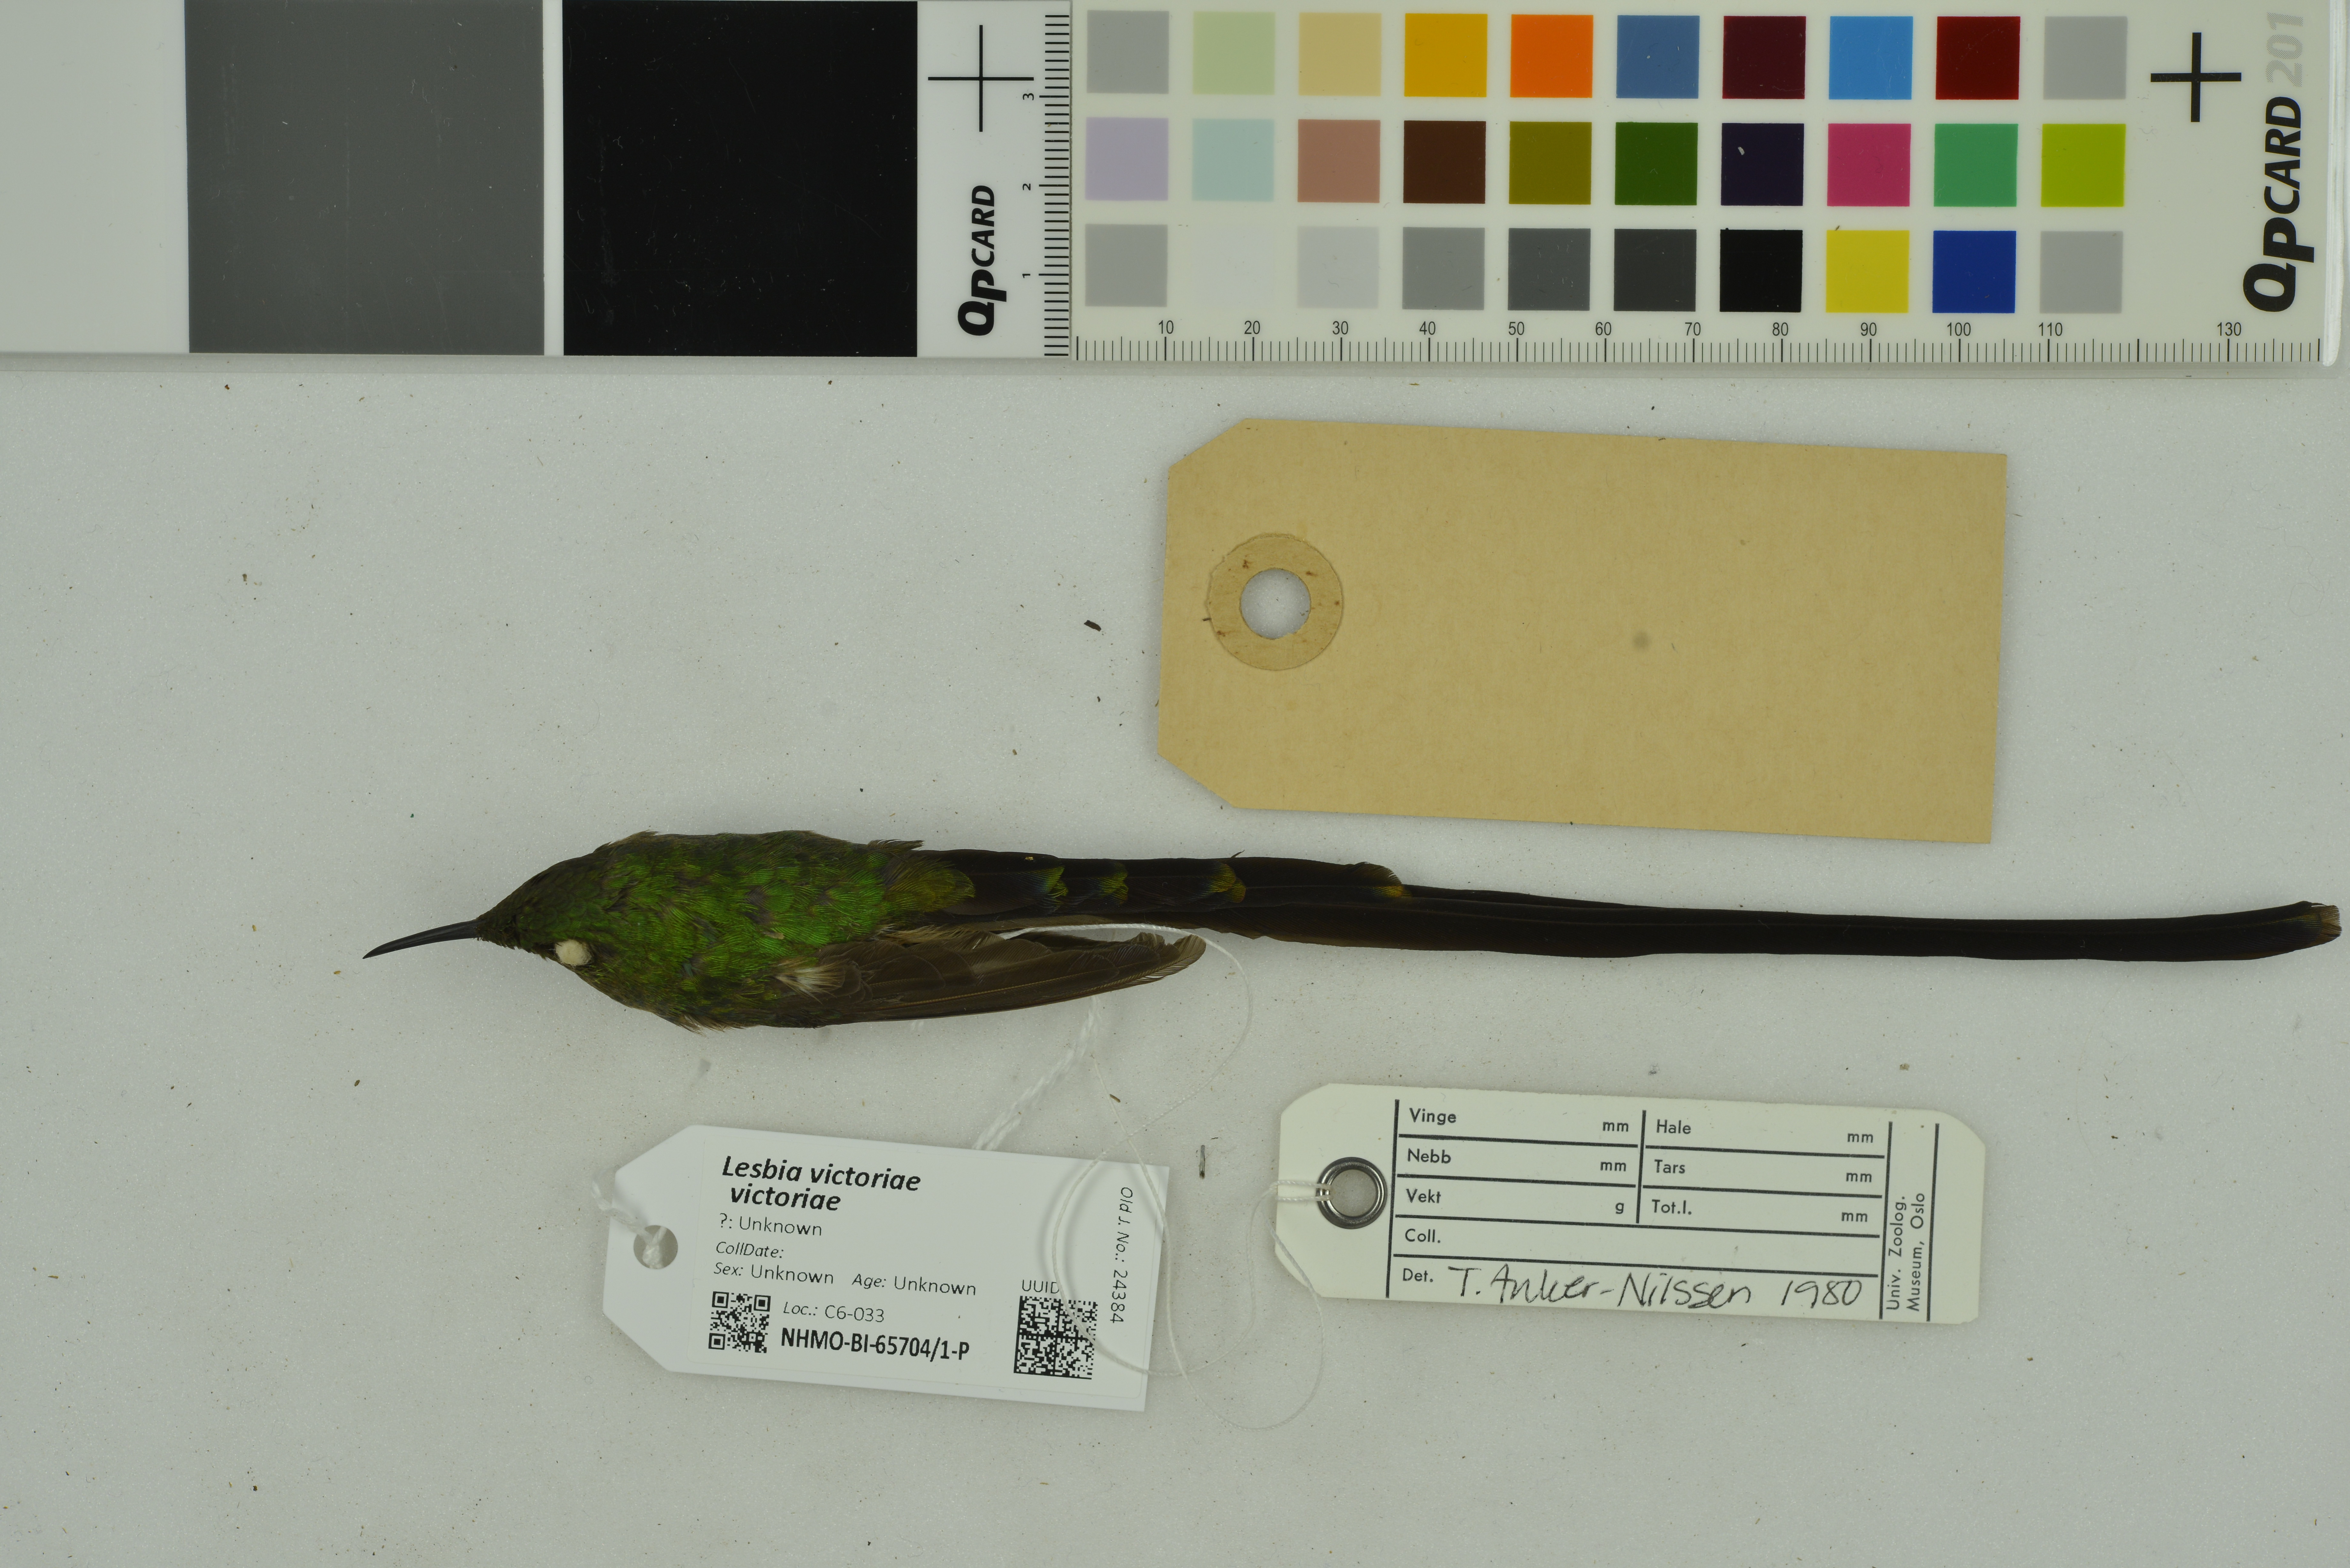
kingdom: Animalia
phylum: Chordata
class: Aves
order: Apodiformes
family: Trochilidae
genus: Lesbia
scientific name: Lesbia victoriae
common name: Black-tailed trainbearer
